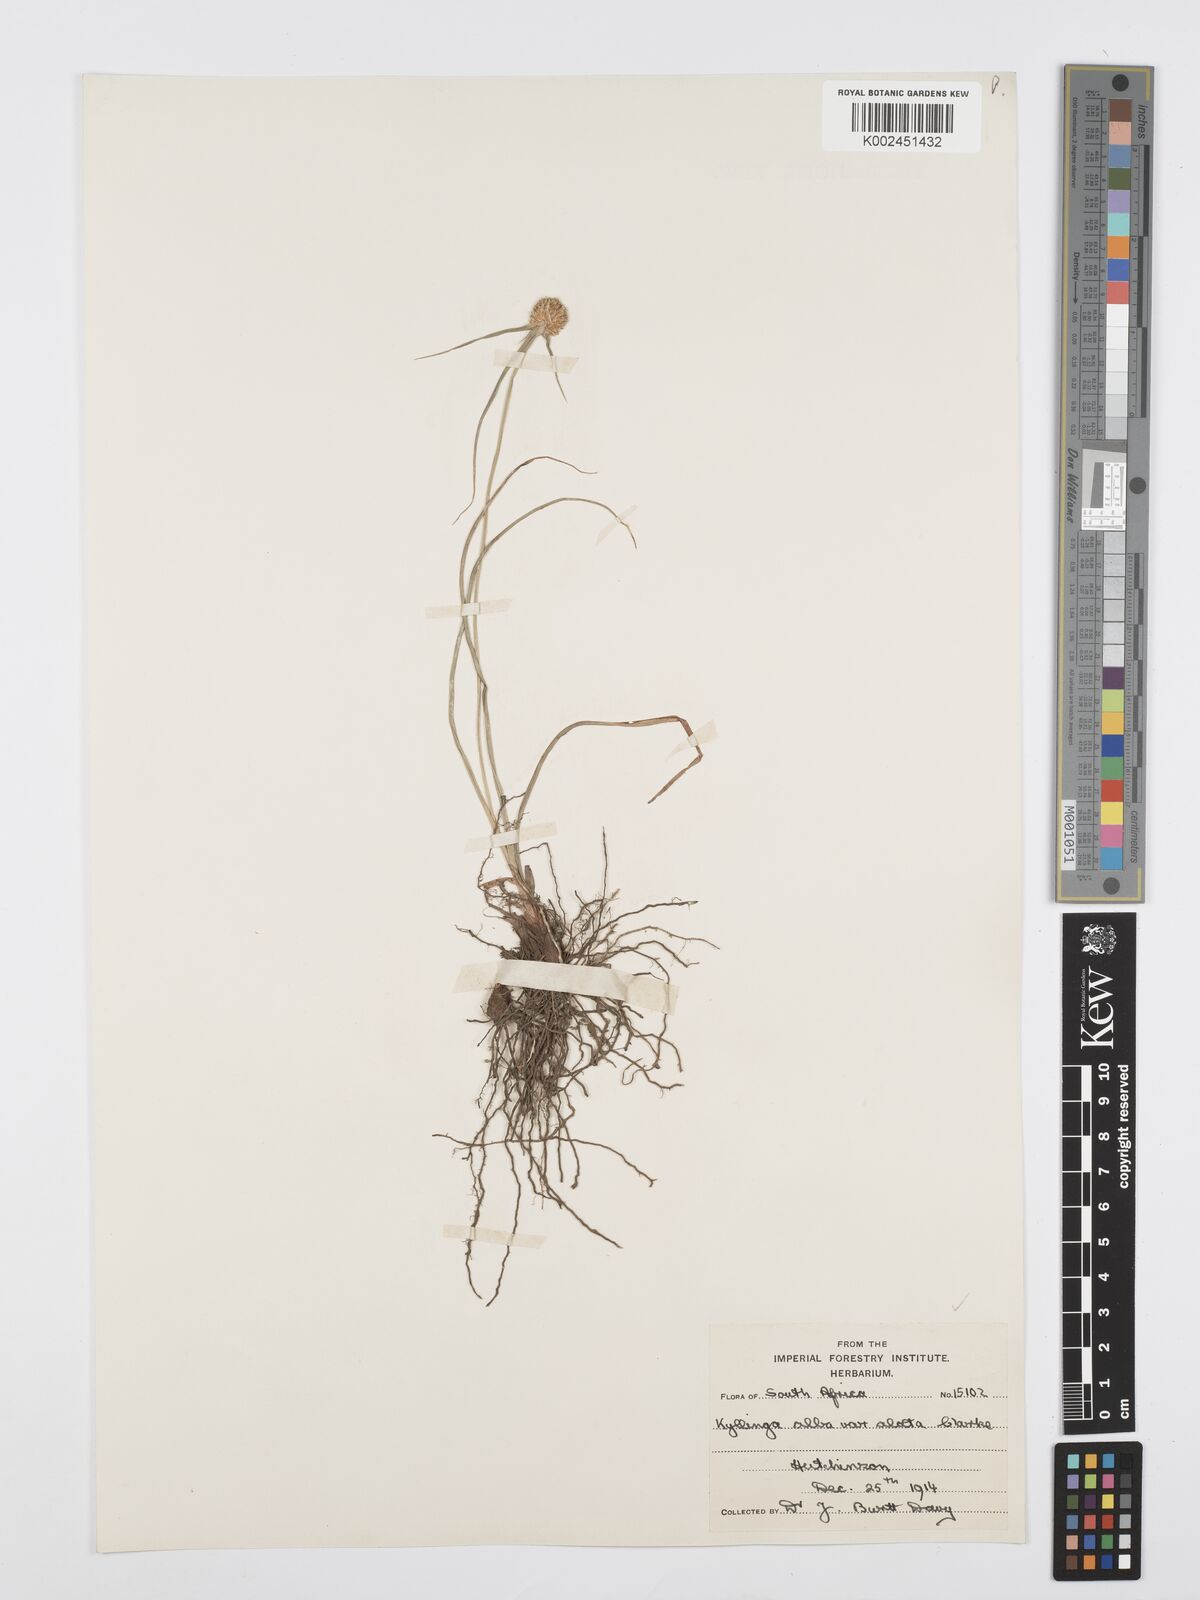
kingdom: Plantae
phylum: Tracheophyta
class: Liliopsida
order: Poales
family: Cyperaceae
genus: Cyperus
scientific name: Cyperus alatus
